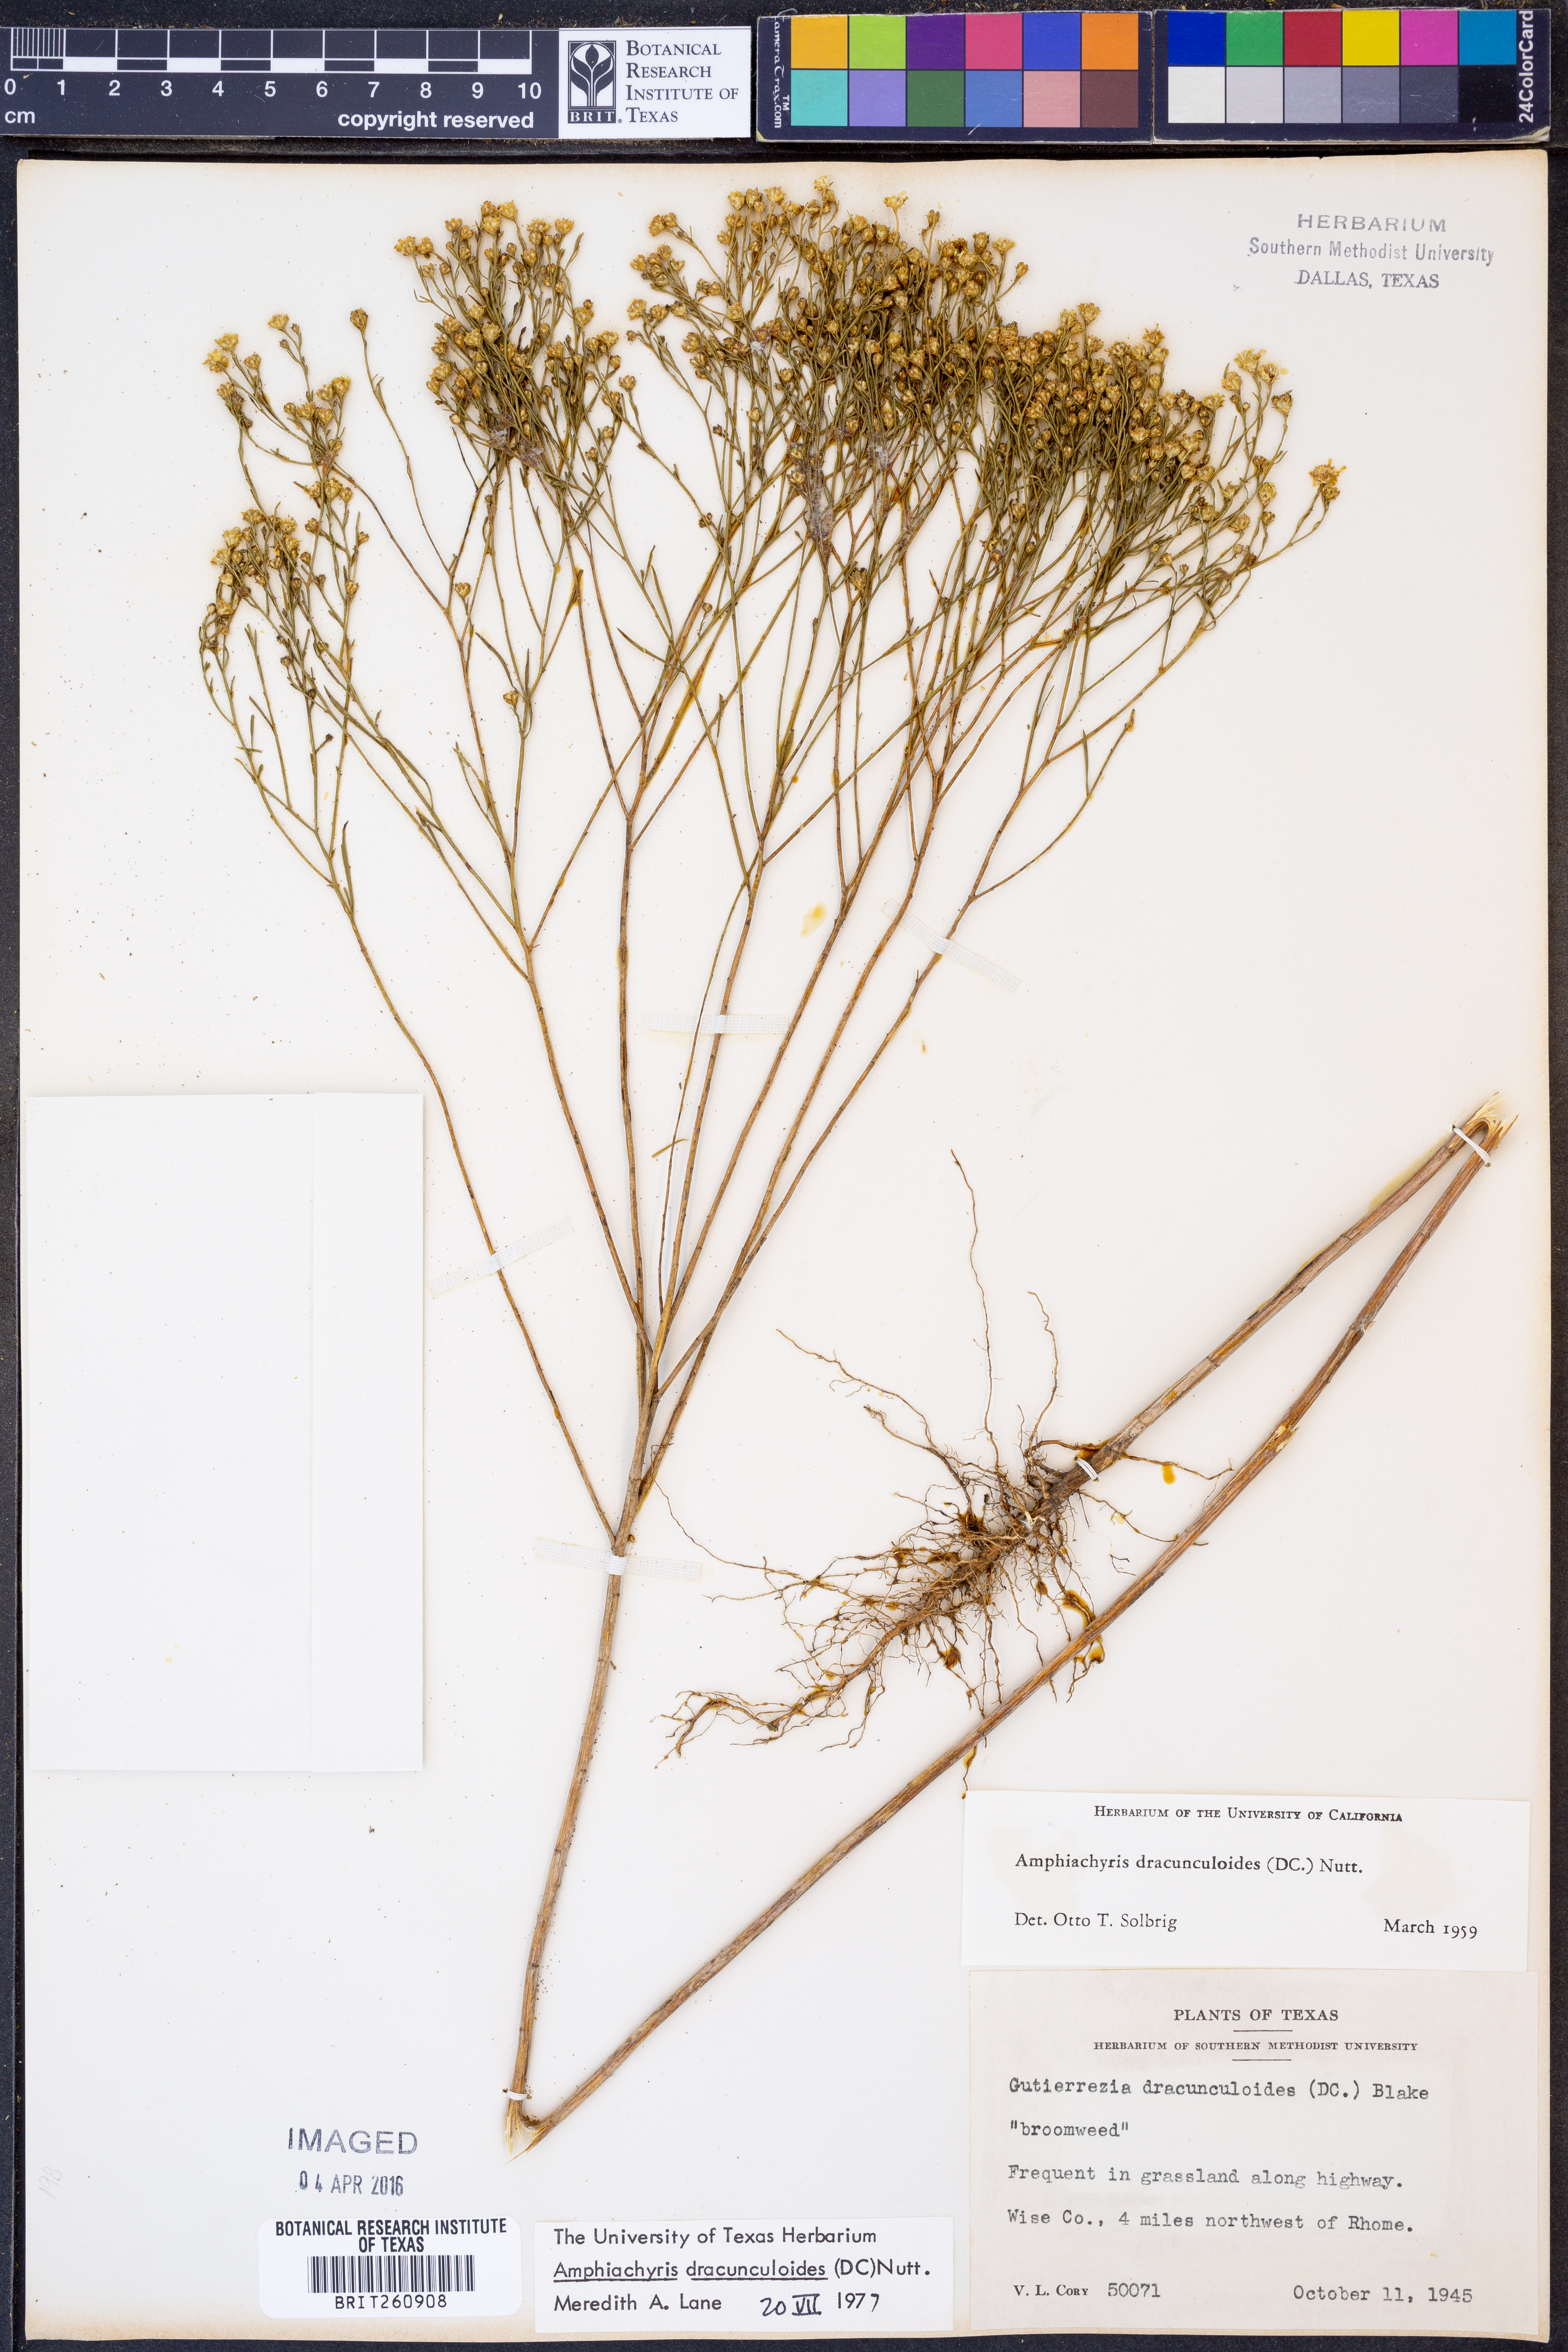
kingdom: Plantae
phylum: Tracheophyta
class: Magnoliopsida
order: Asterales
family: Asteraceae
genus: Amphiachyris
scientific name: Amphiachyris dracunculoides
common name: Broomweed
